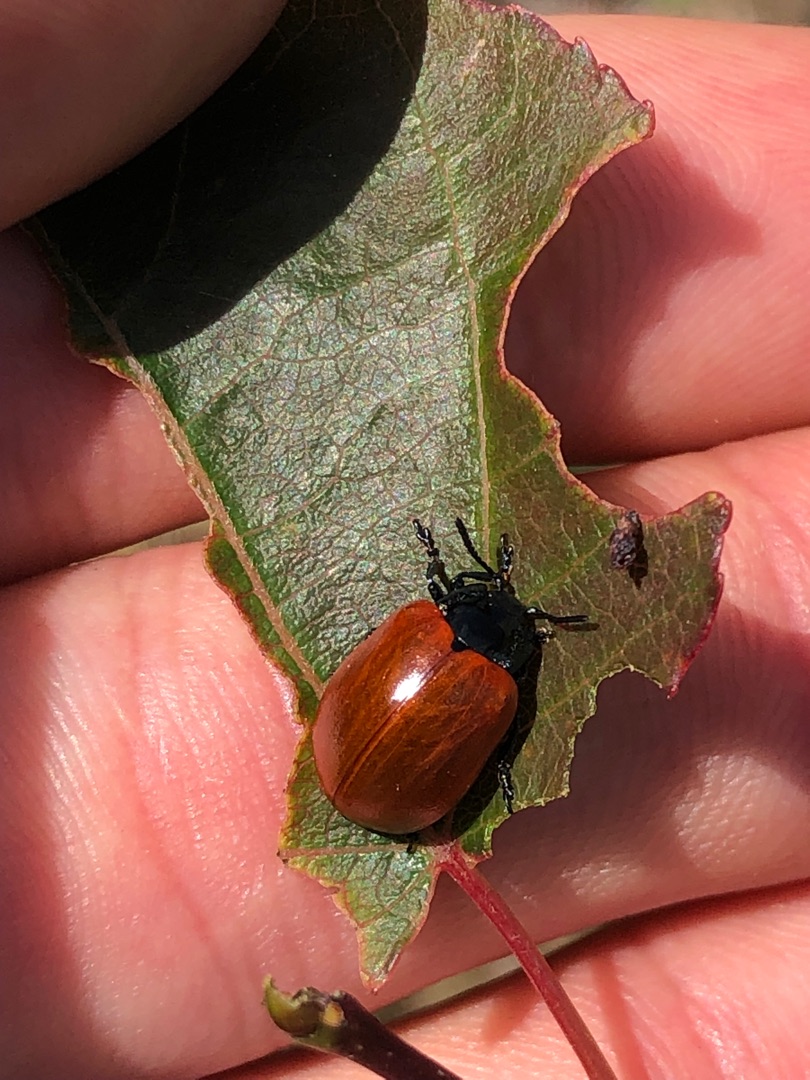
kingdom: Animalia
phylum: Arthropoda
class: Insecta
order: Coleoptera
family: Chrysomelidae
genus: Chrysomela
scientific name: Chrysomela populi
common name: Poppelbladbille
